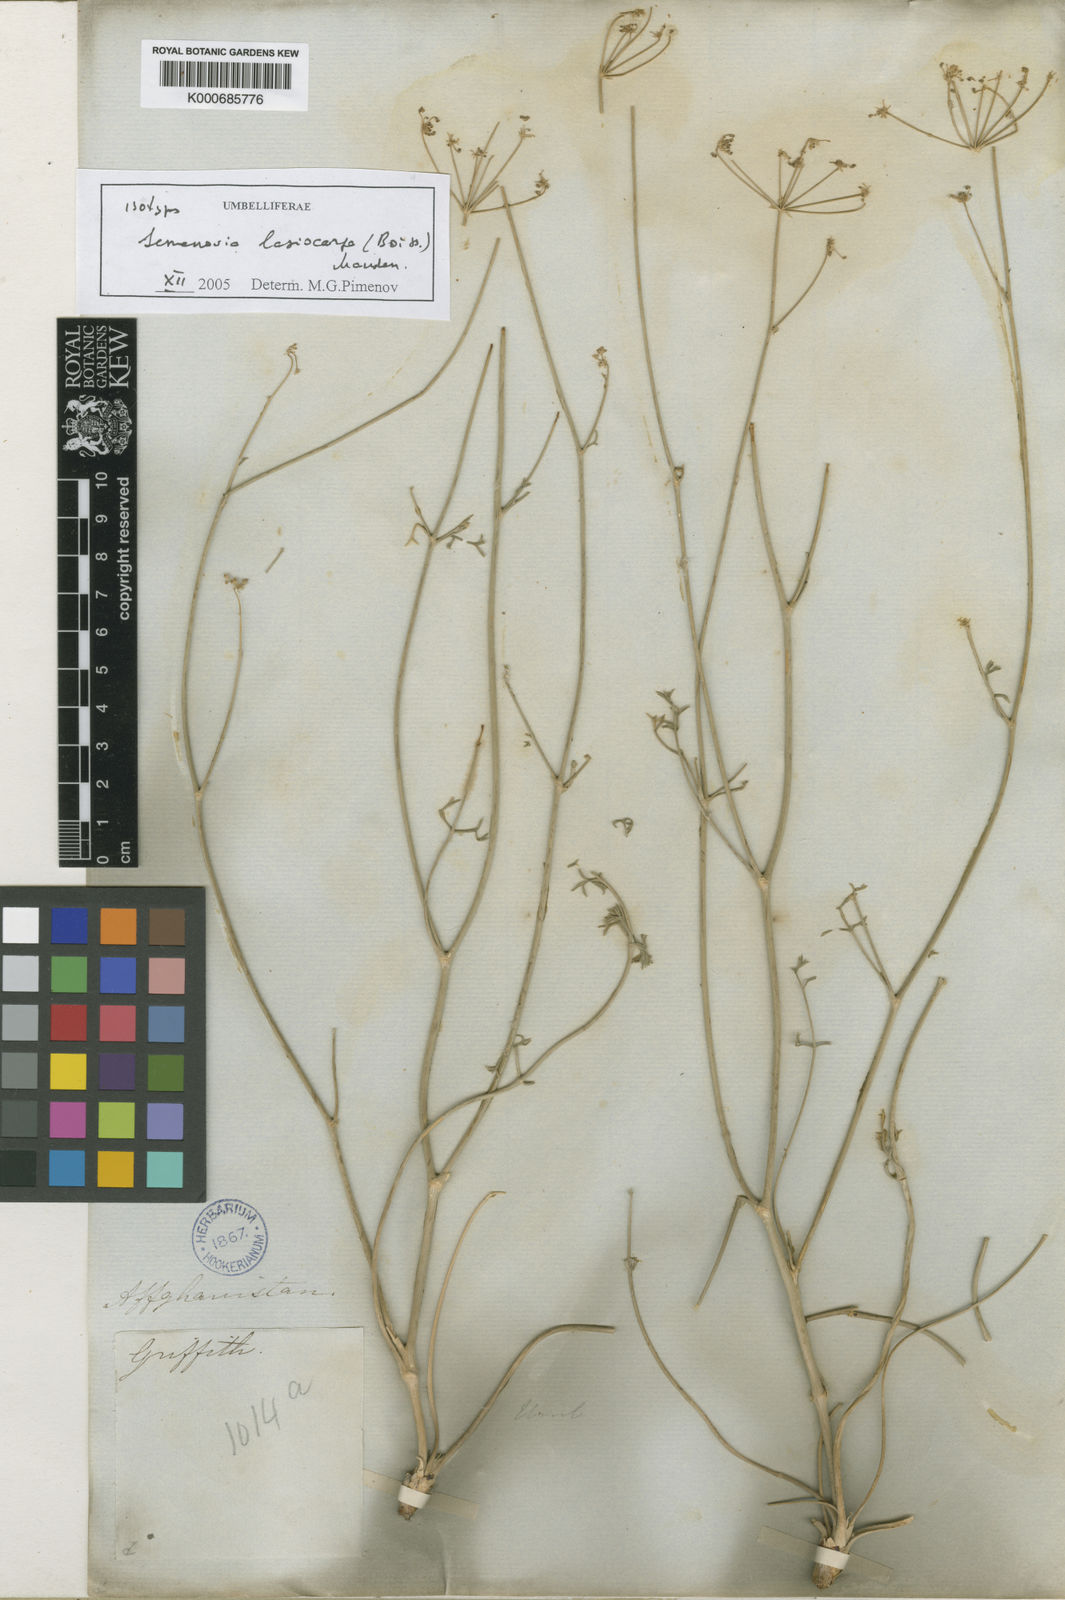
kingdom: Plantae
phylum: Tracheophyta
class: Magnoliopsida
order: Apiales
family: Apiaceae
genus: Semenovia
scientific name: Semenovia lasiocarpa
